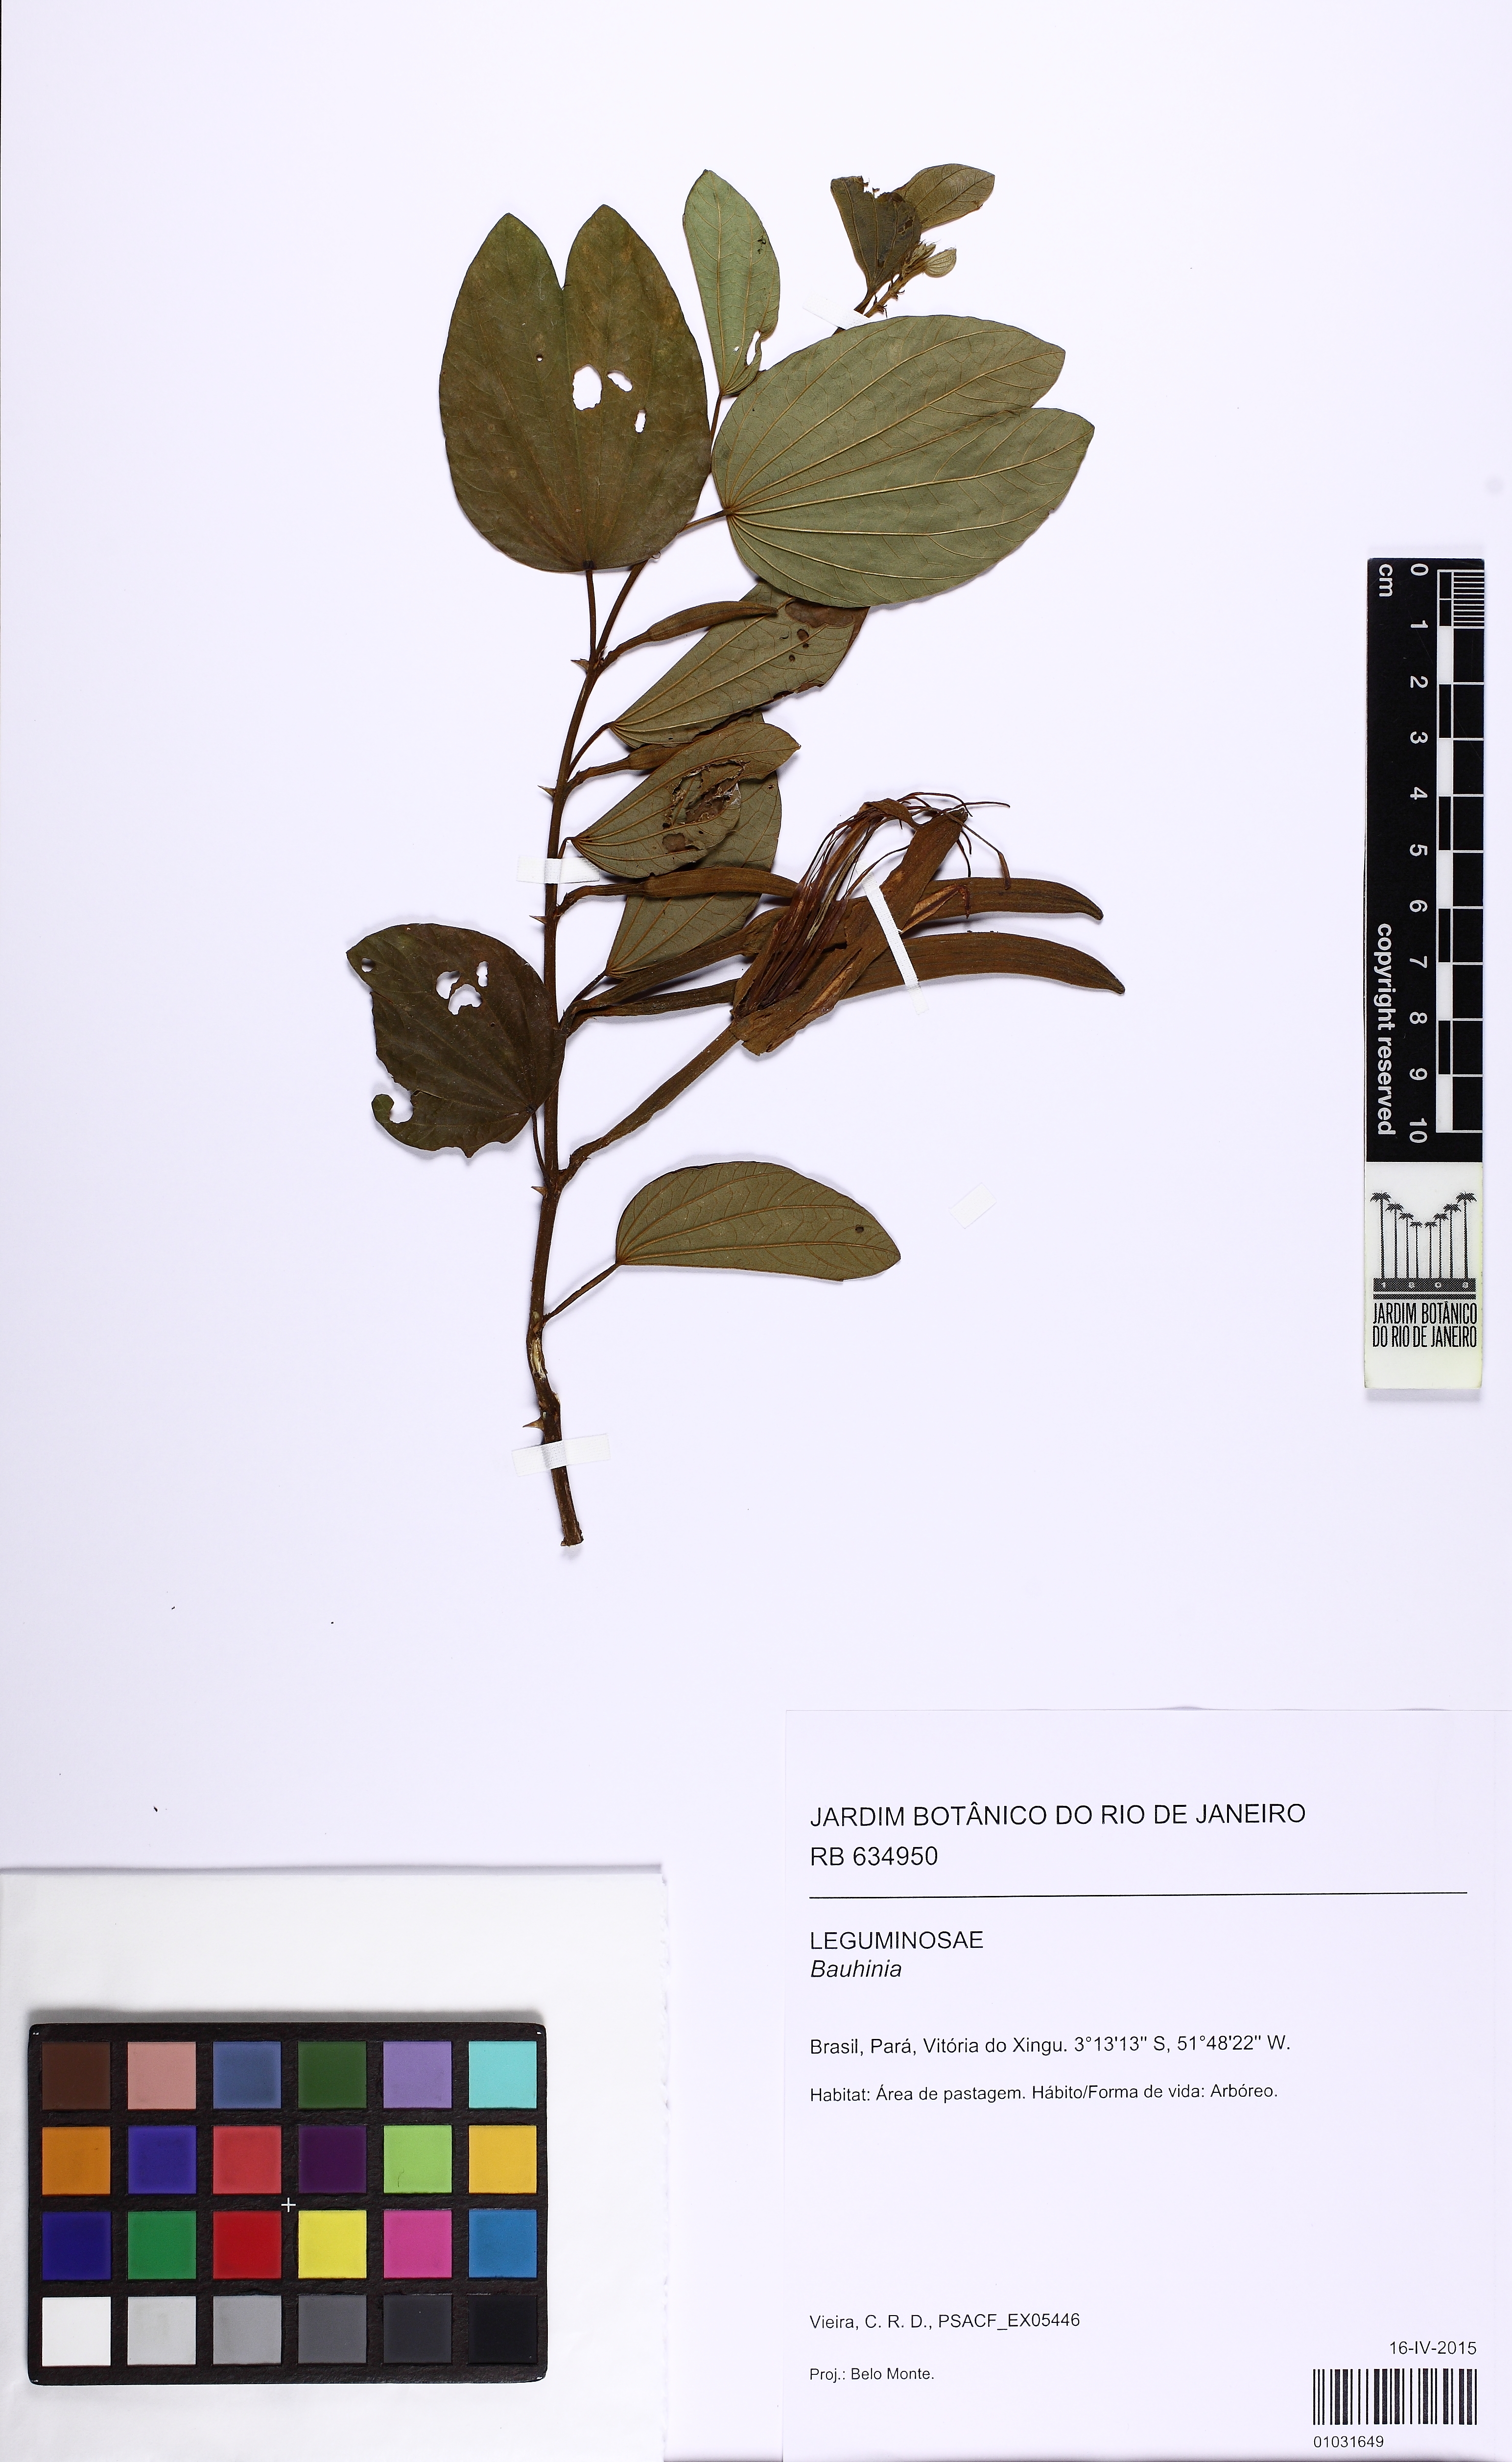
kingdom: Plantae
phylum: Tracheophyta
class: Magnoliopsida
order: Fabales
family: Fabaceae
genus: Bauhinia
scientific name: Bauhinia
